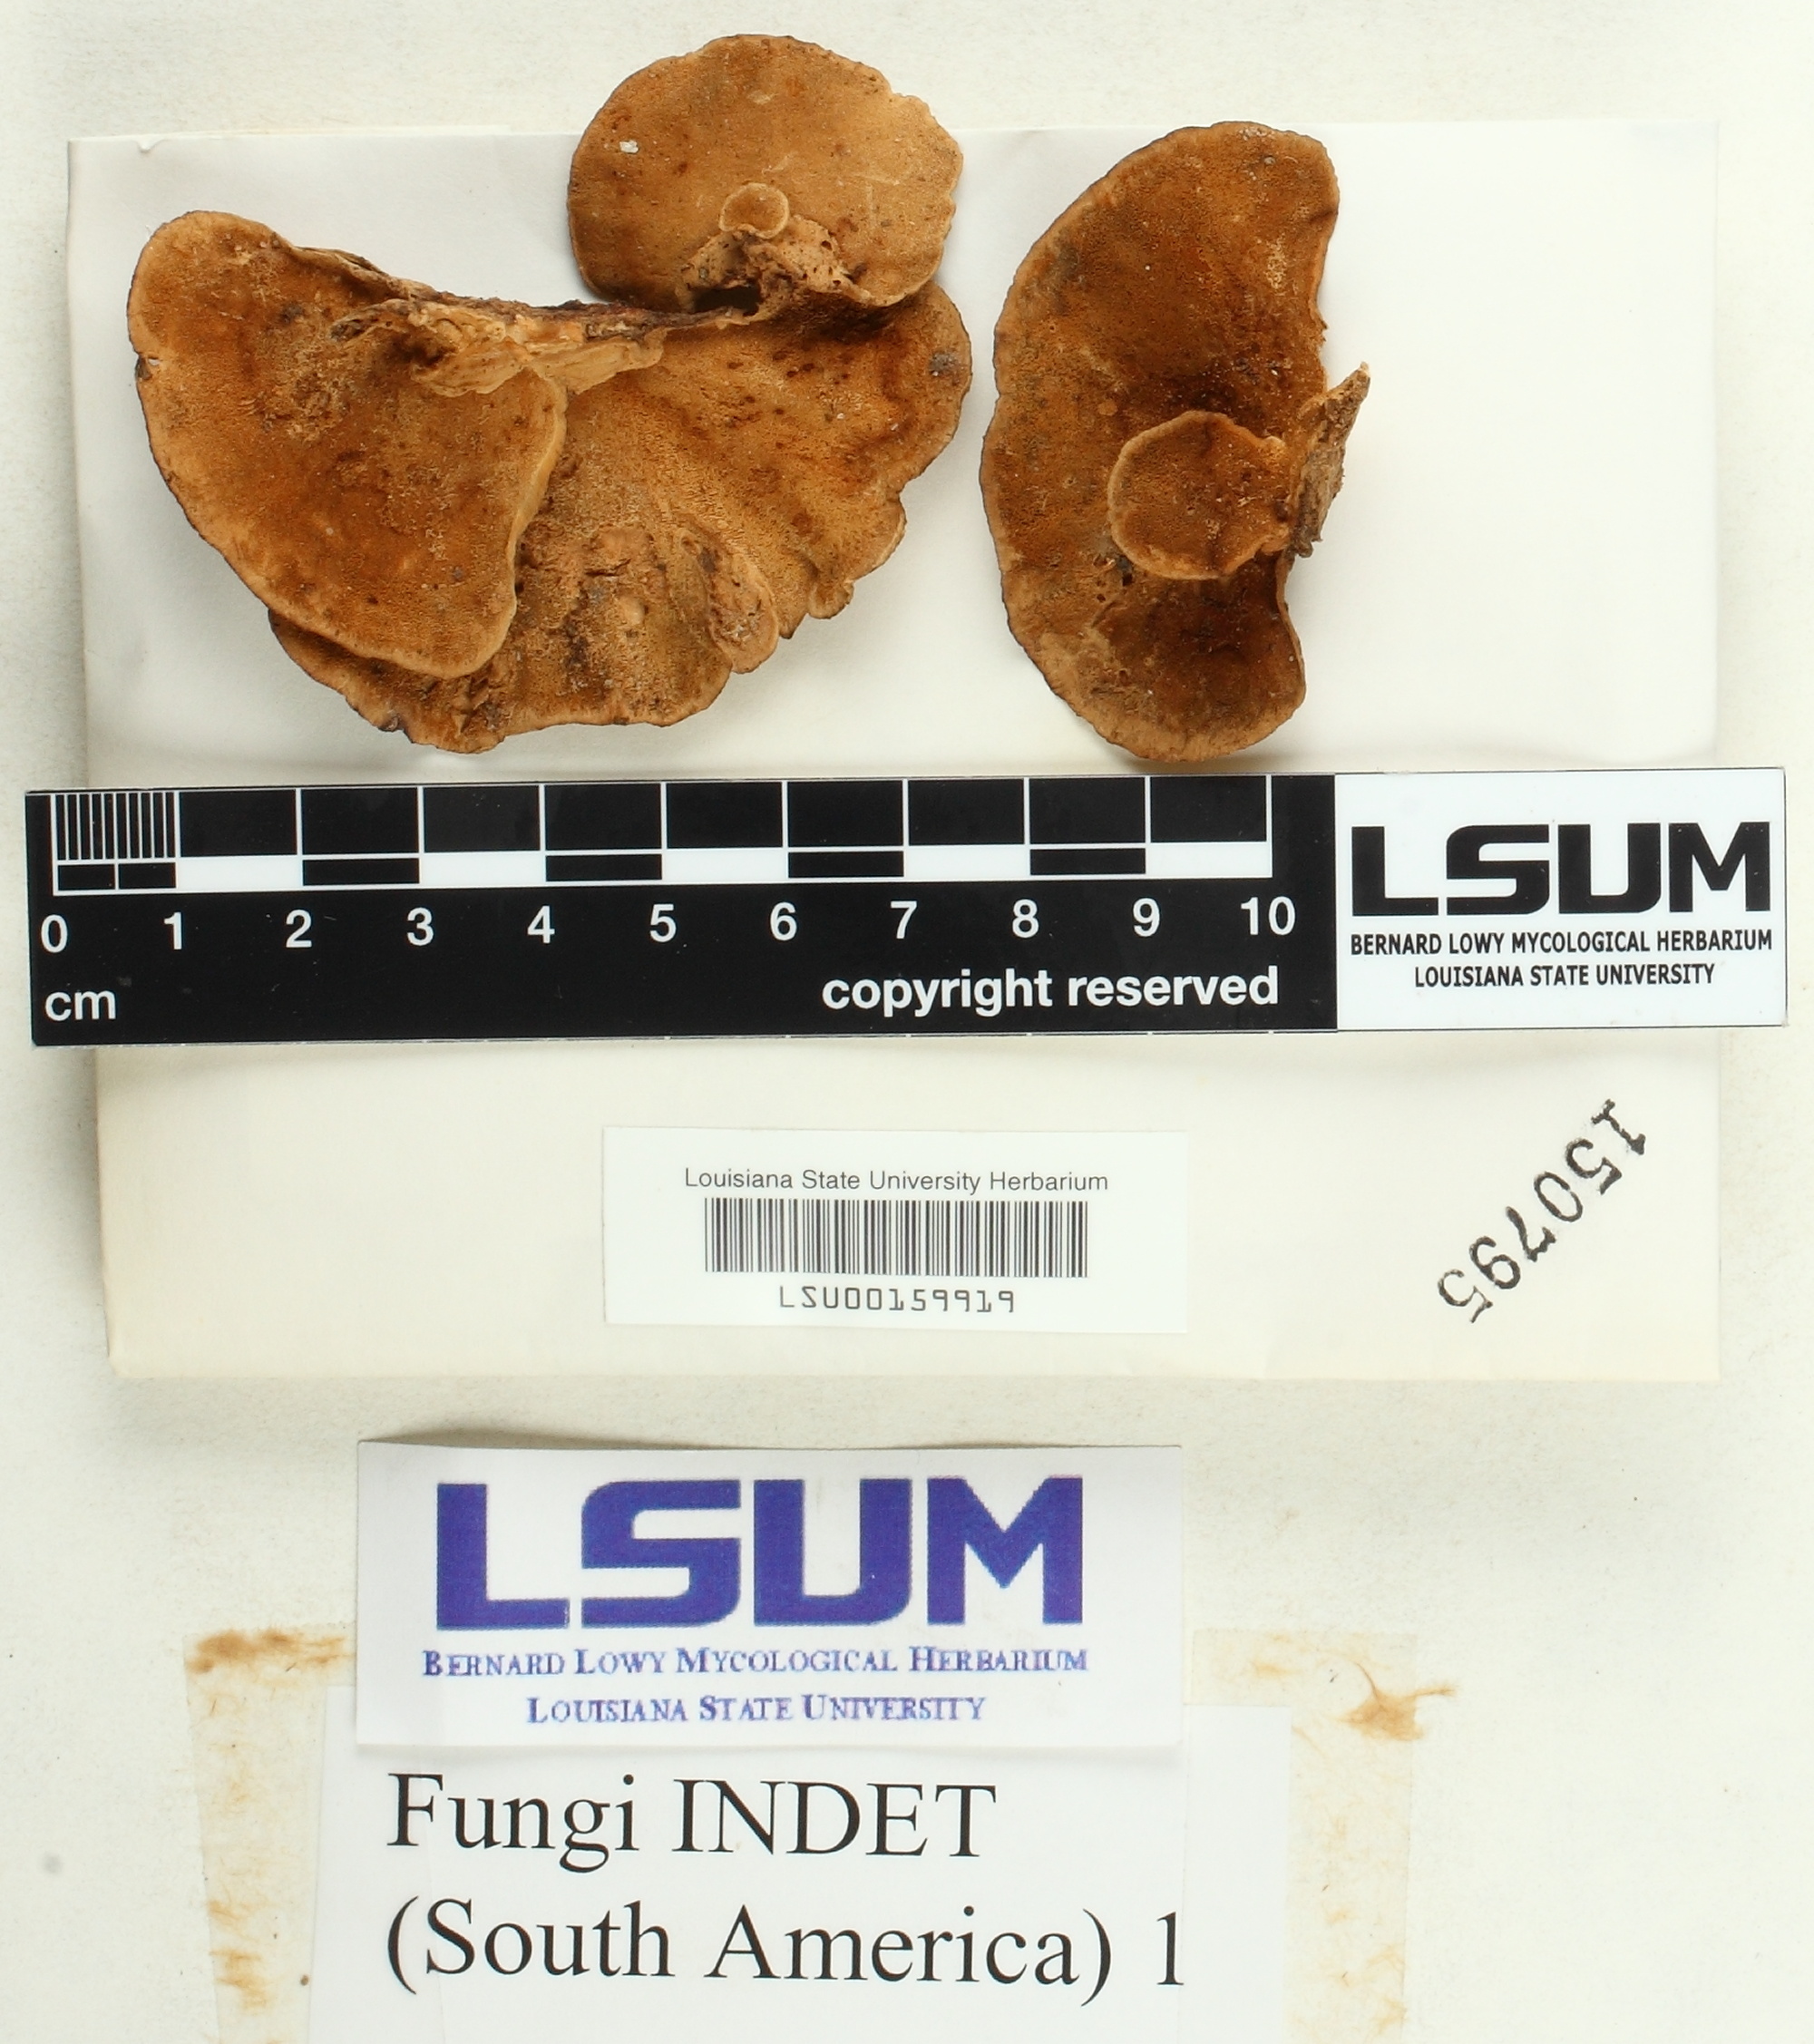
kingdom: Fungi
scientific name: Fungi
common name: Fungi
